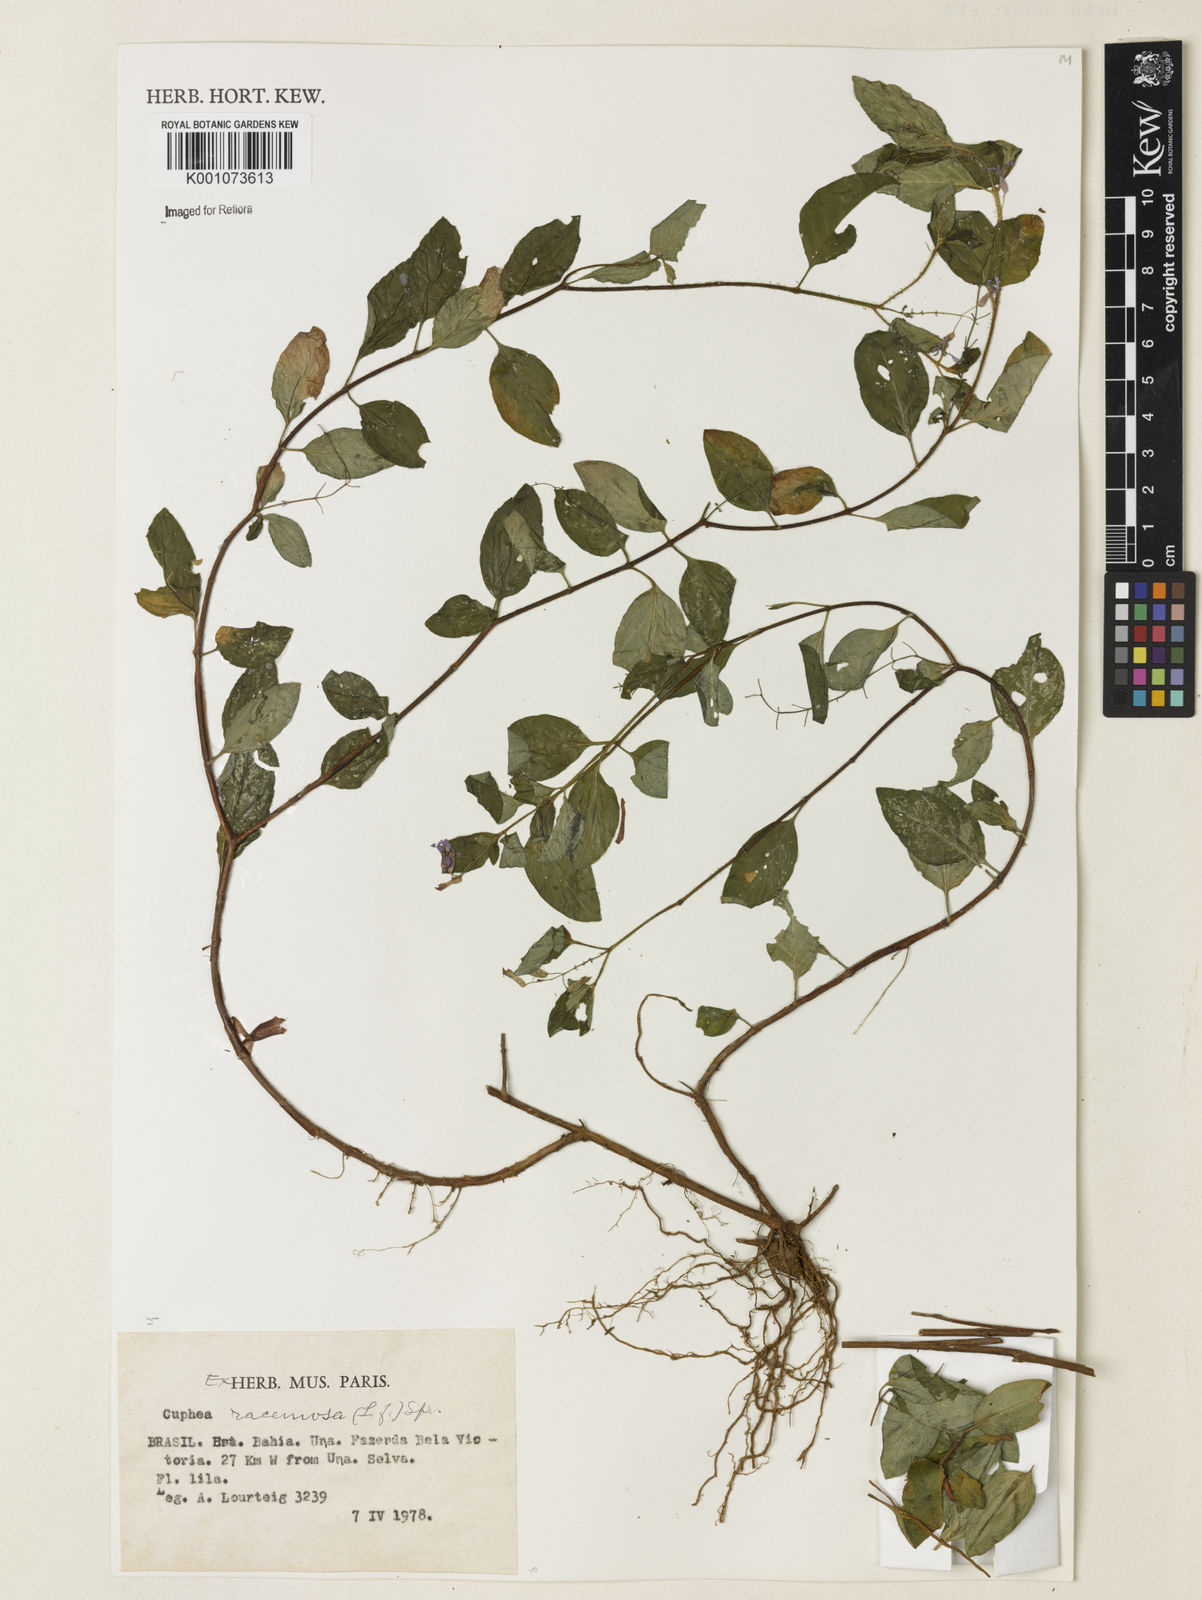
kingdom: Plantae
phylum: Tracheophyta
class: Magnoliopsida
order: Myrtales
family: Lythraceae
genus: Cuphea
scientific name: Cuphea racemosa
